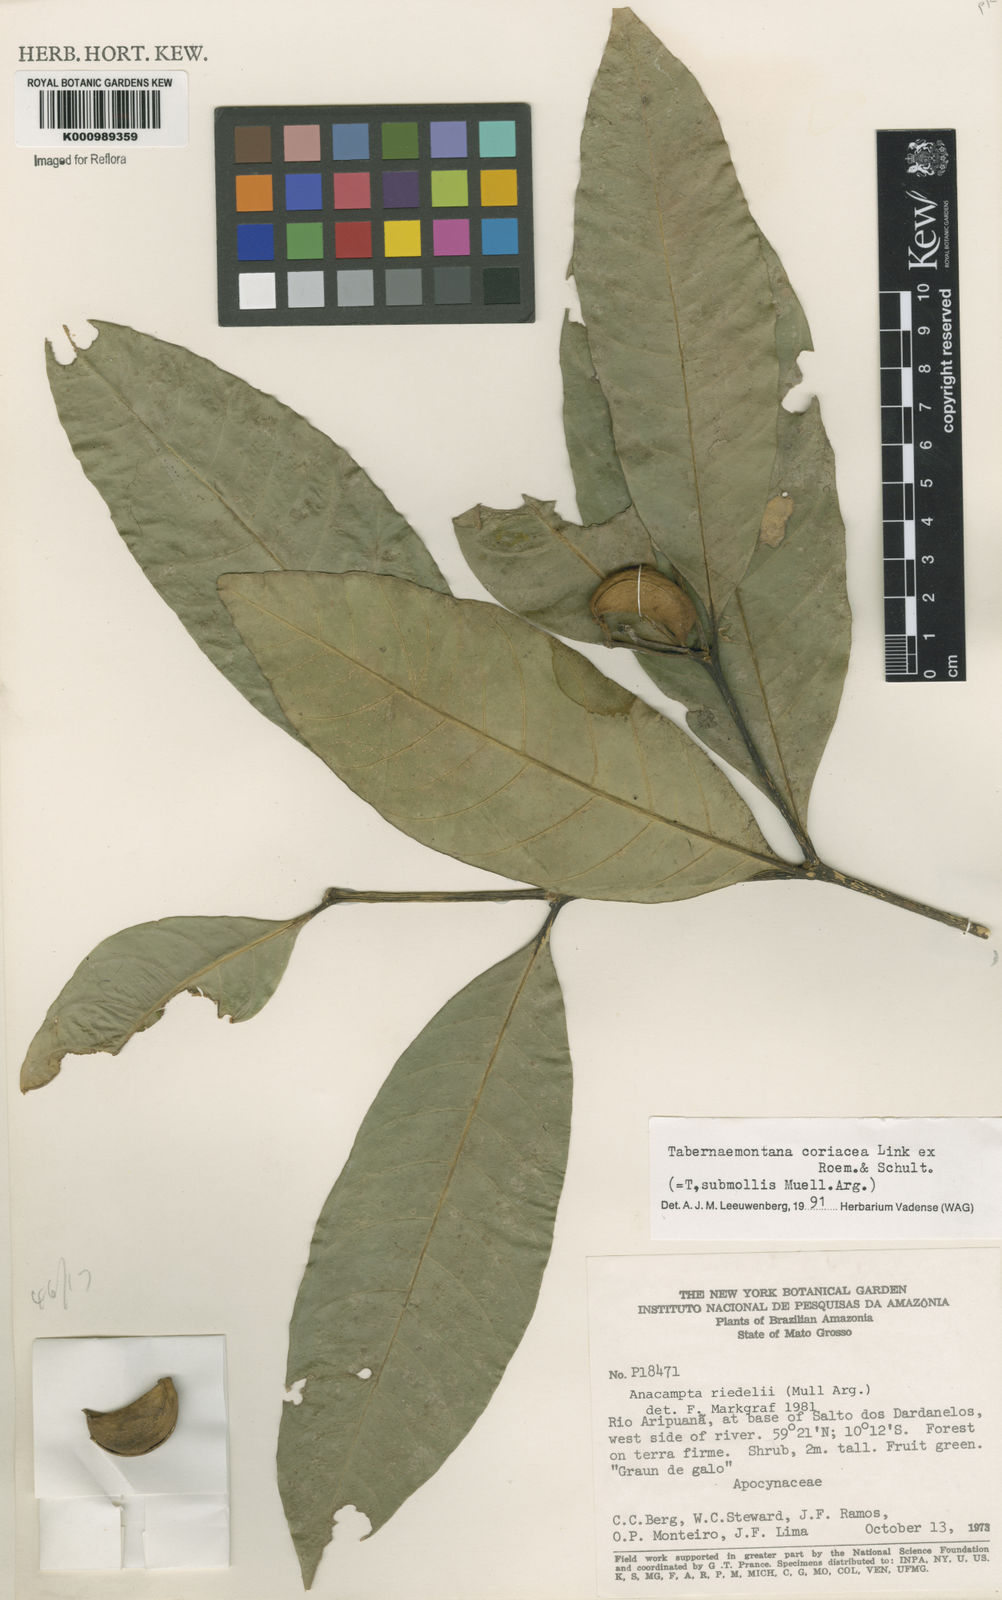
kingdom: Plantae
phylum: Tracheophyta
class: Magnoliopsida
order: Gentianales
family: Apocynaceae
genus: Tabernaemontana
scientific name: Tabernaemontana coriacea
